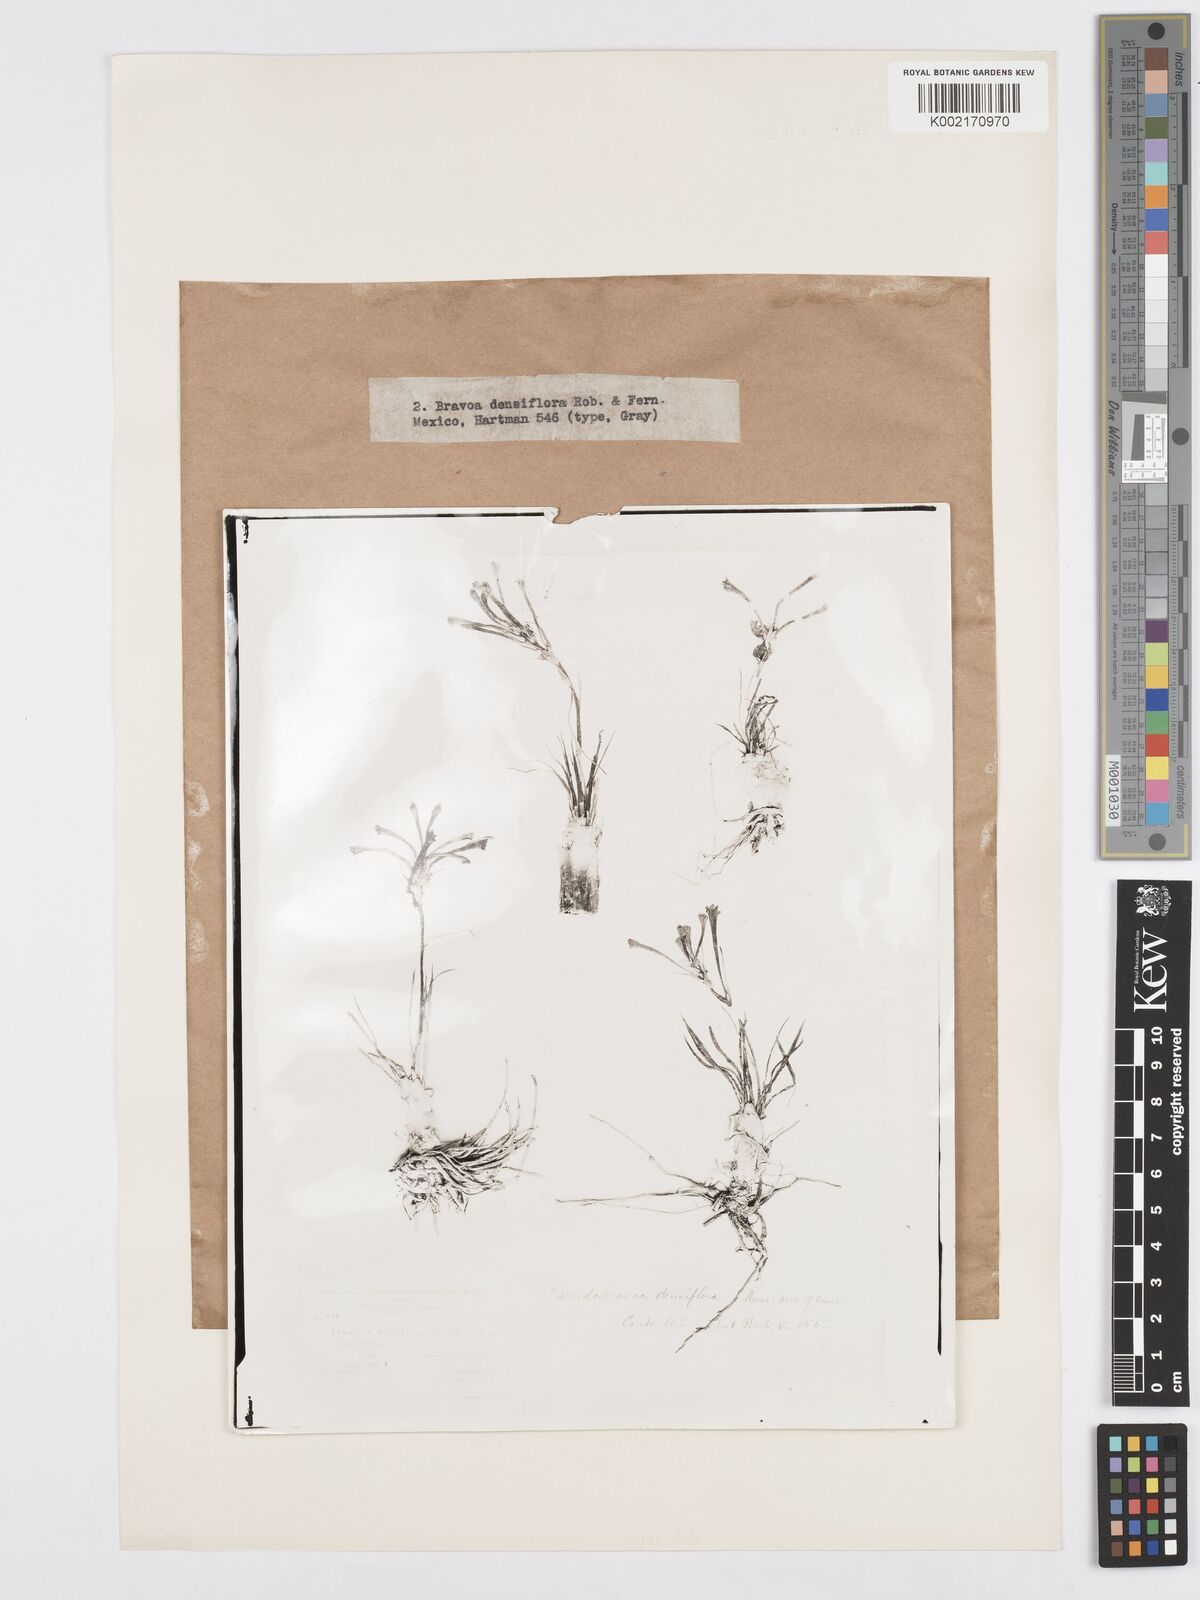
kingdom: Plantae
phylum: Tracheophyta
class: Liliopsida
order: Asparagales
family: Asparagaceae
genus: Agave
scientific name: Agave confertiflora
